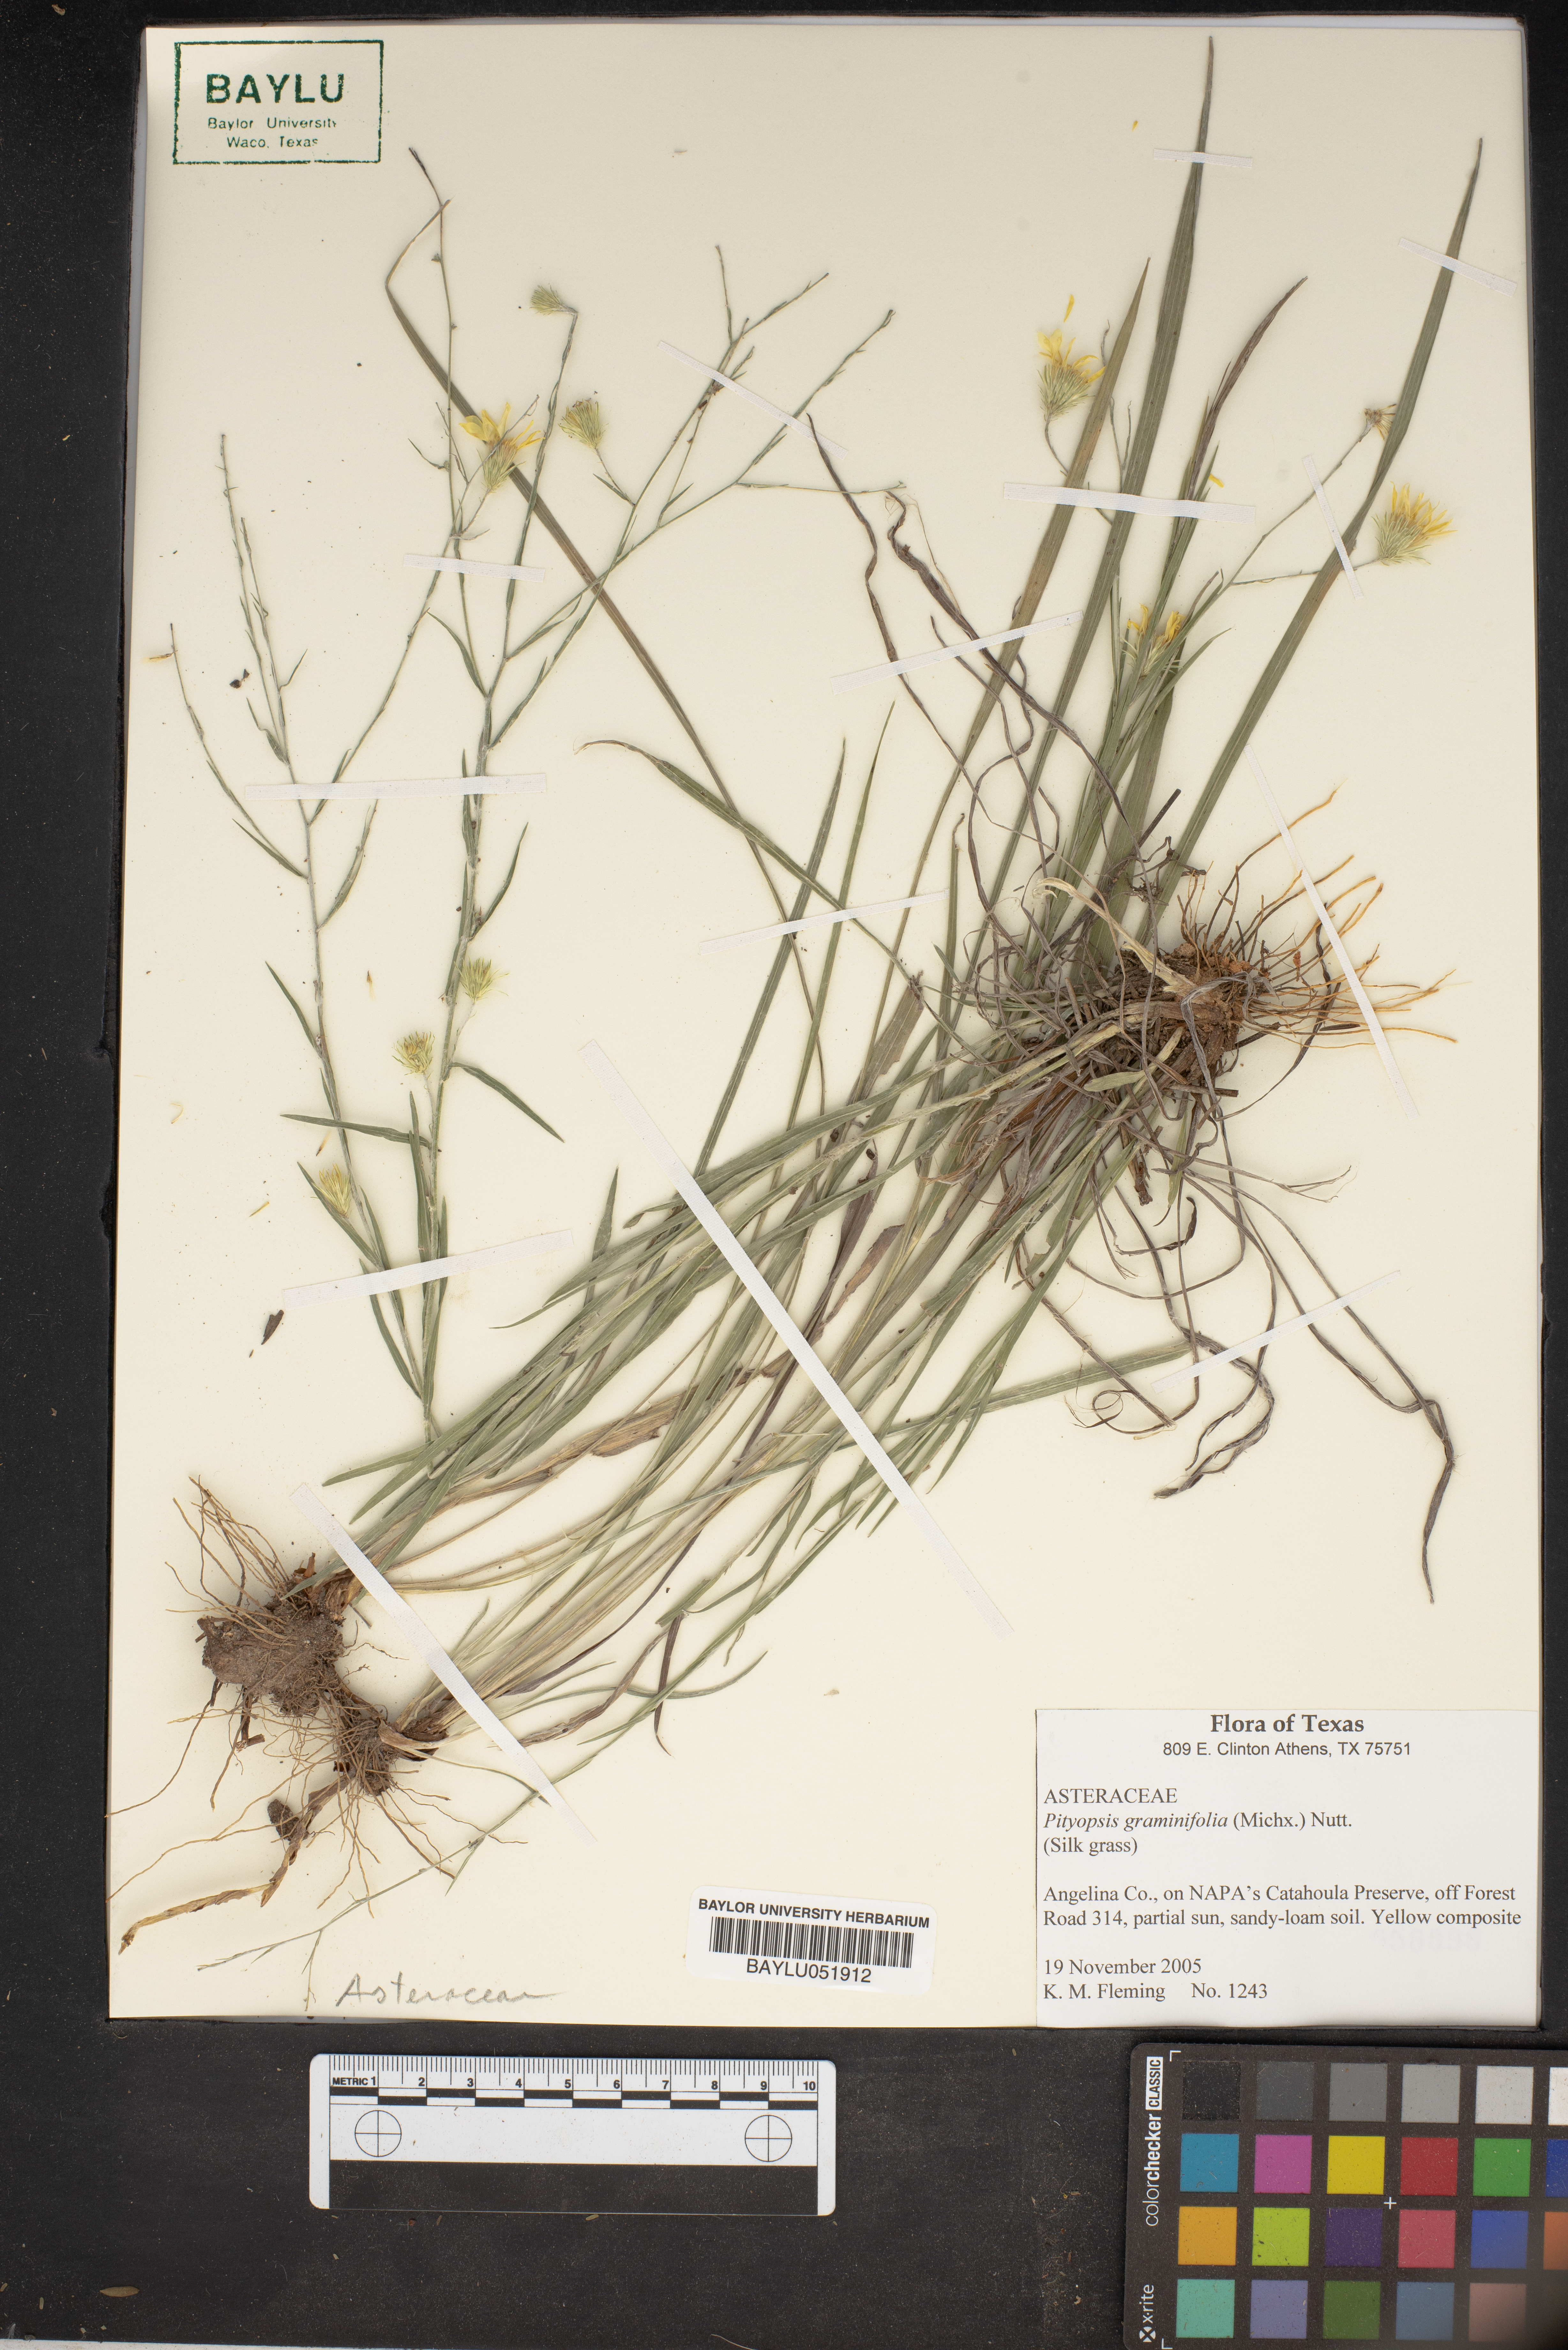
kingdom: Plantae
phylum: Tracheophyta
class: Magnoliopsida
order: Asterales
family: Asteraceae
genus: Pityopsis
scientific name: Pityopsis graminifolia
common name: Grass-leaf golden-aster
